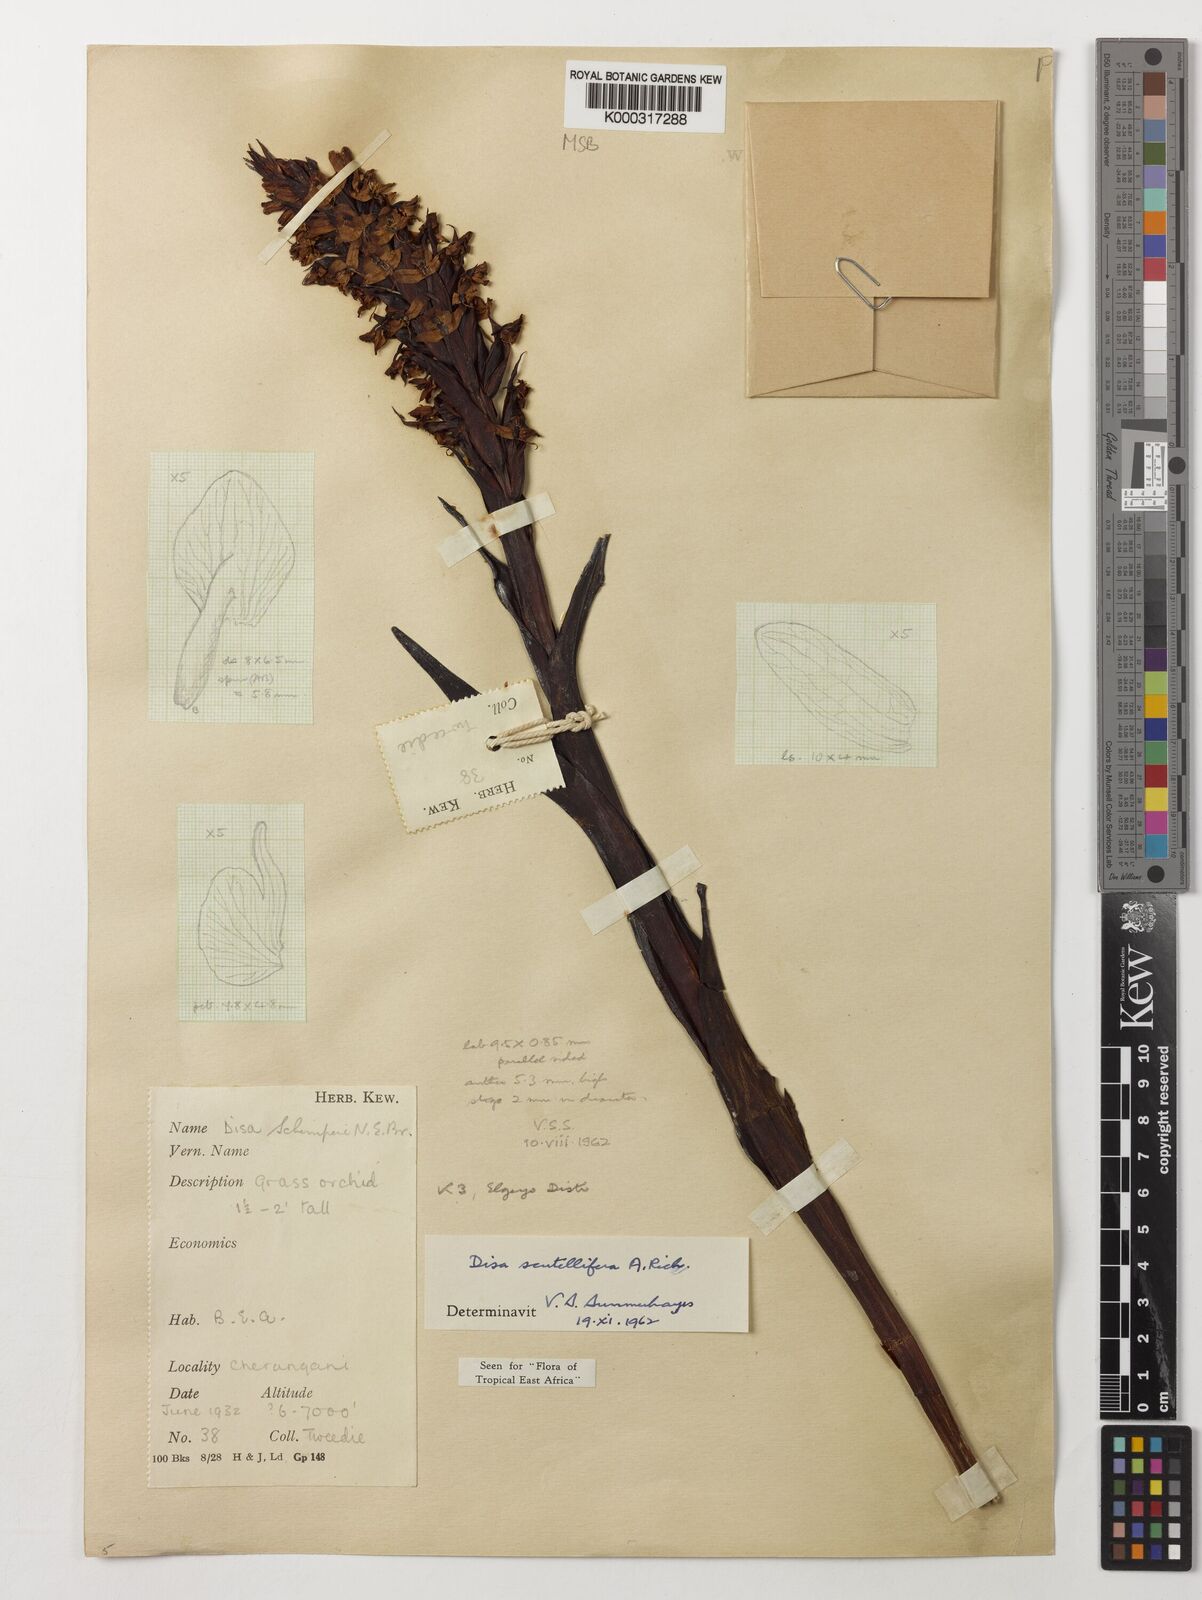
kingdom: Plantae
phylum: Tracheophyta
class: Liliopsida
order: Asparagales
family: Orchidaceae
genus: Disa
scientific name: Disa scutellifera
